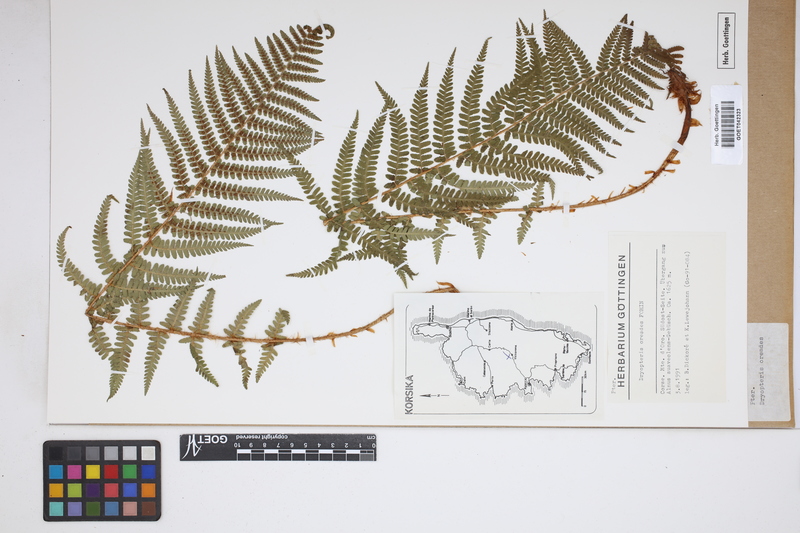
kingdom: Plantae
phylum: Tracheophyta
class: Polypodiopsida
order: Polypodiales
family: Dryopteridaceae
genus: Dryopteris
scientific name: Dryopteris oreades
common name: Mountain male fern
